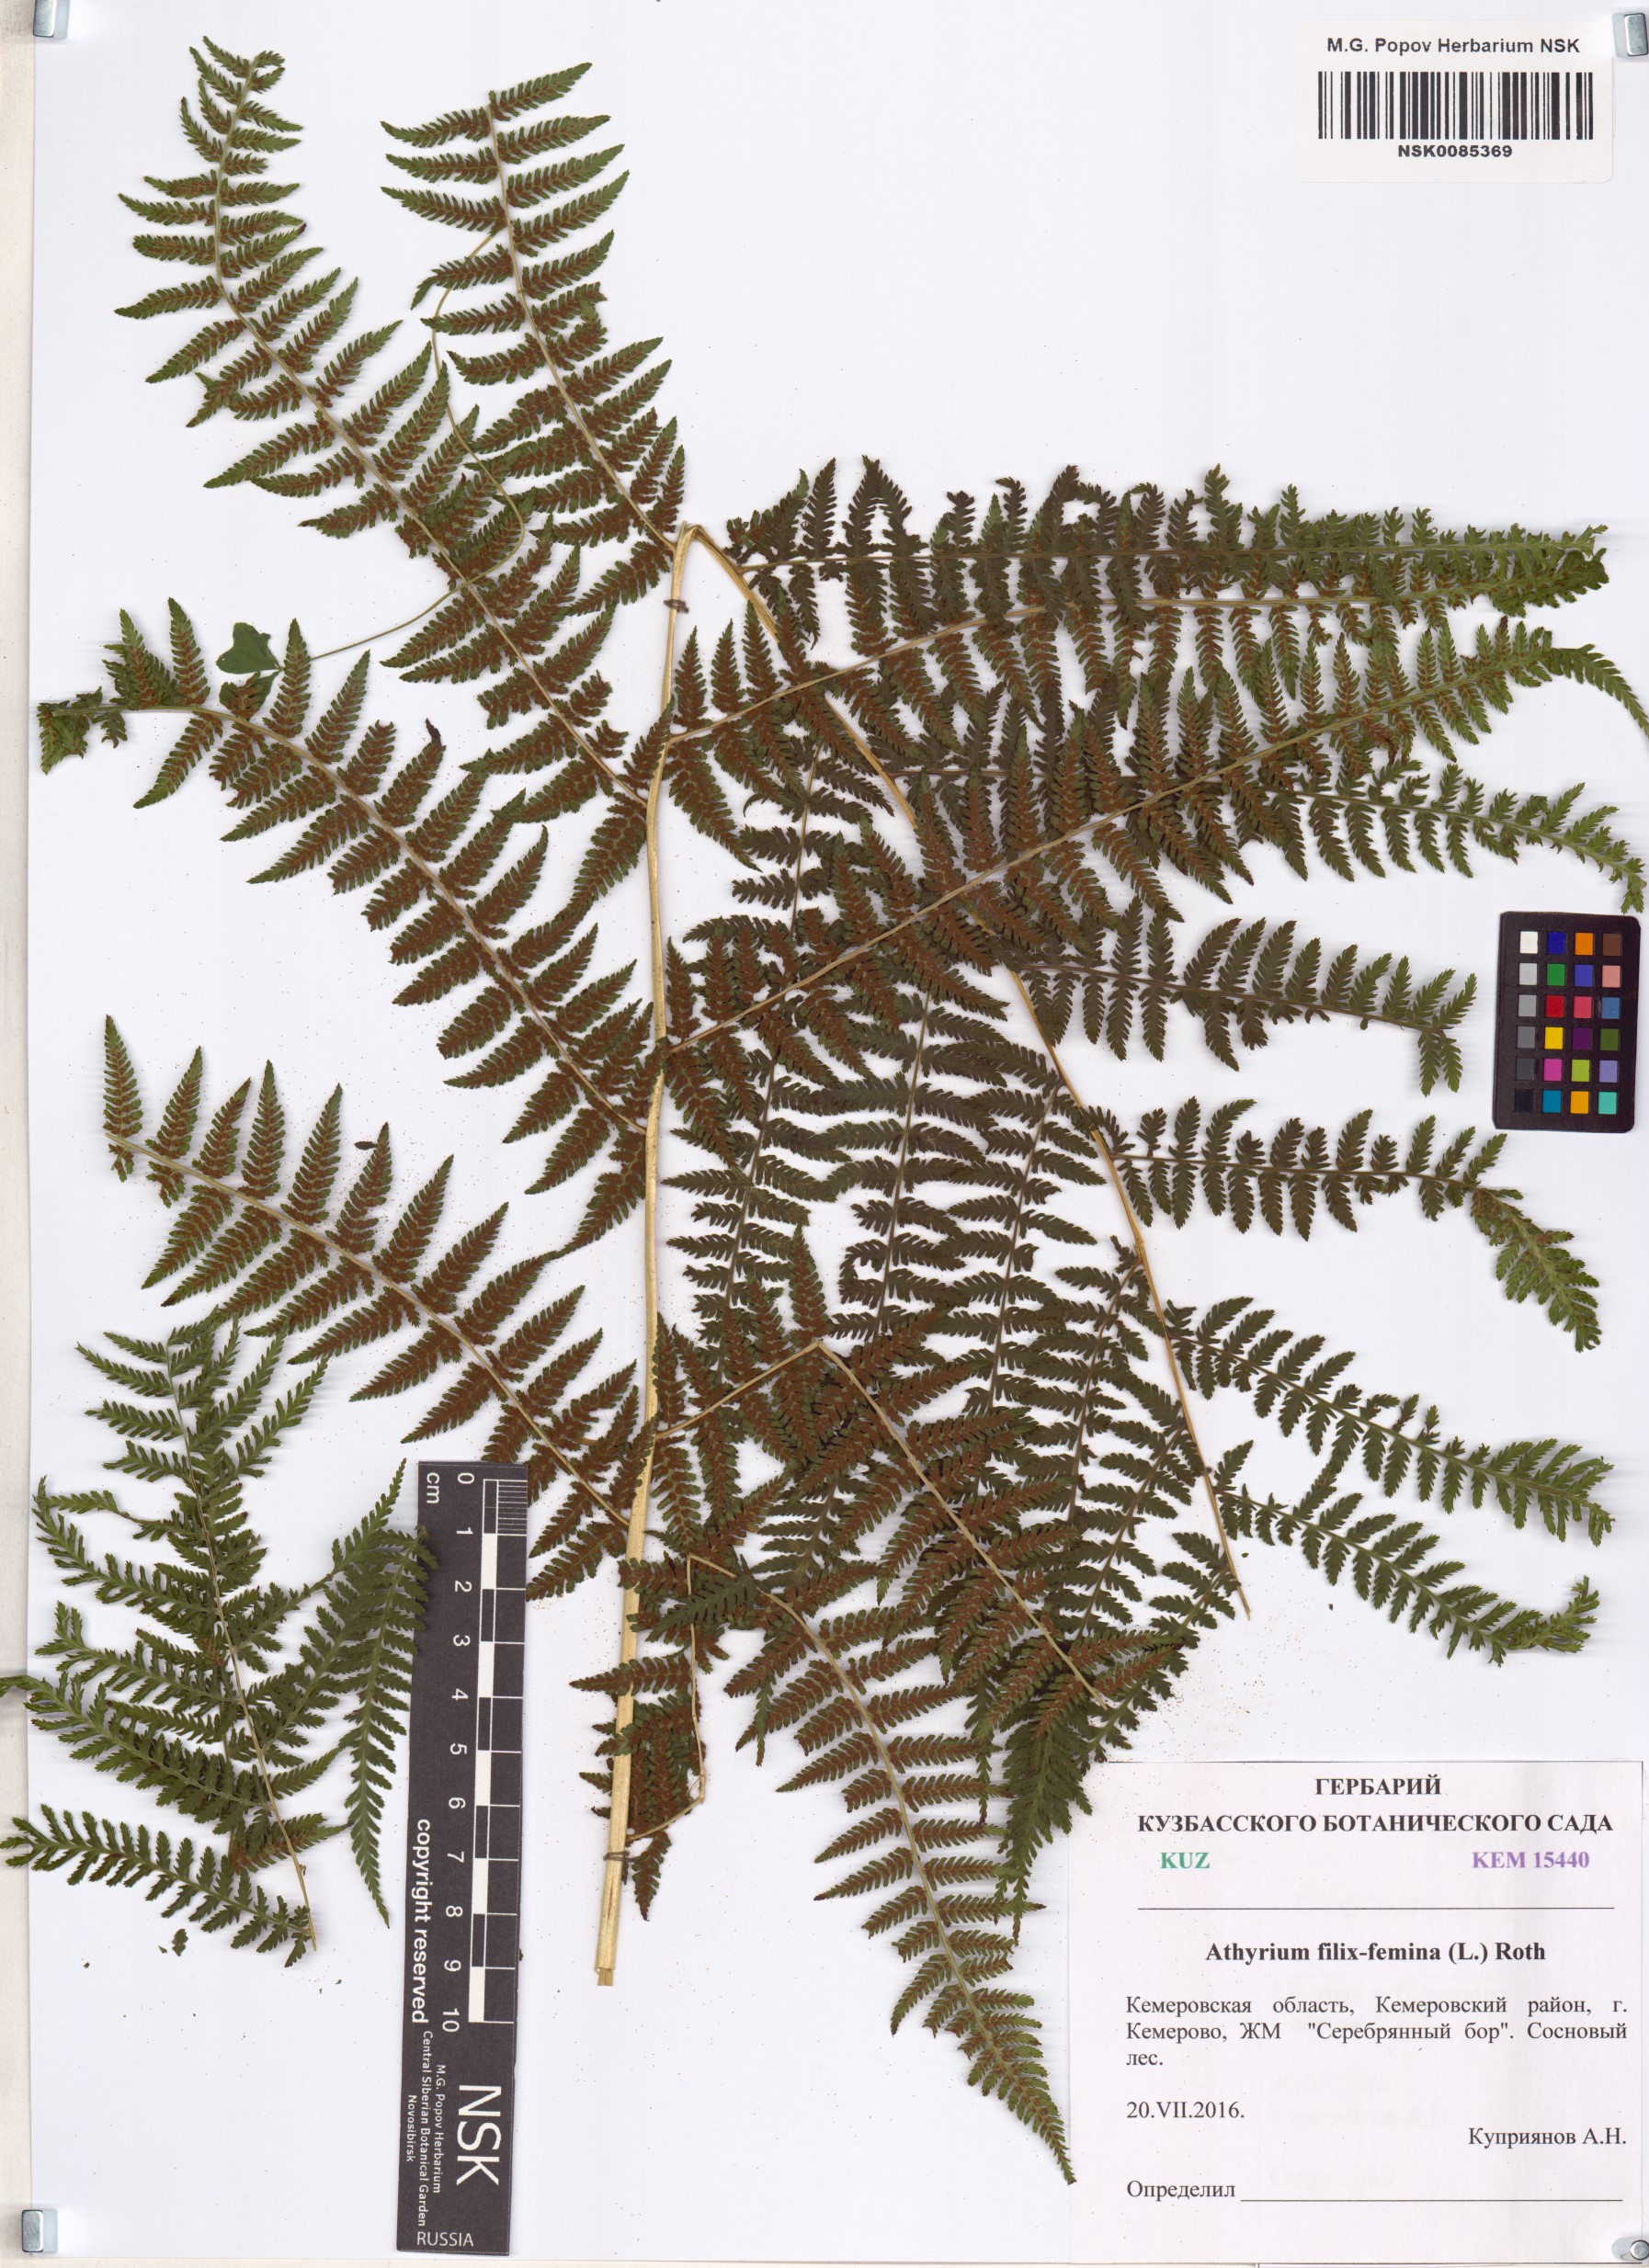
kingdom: Plantae
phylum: Tracheophyta
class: Polypodiopsida
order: Polypodiales
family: Athyriaceae
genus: Athyrium
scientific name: Athyrium filix-femina
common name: Lady fern
